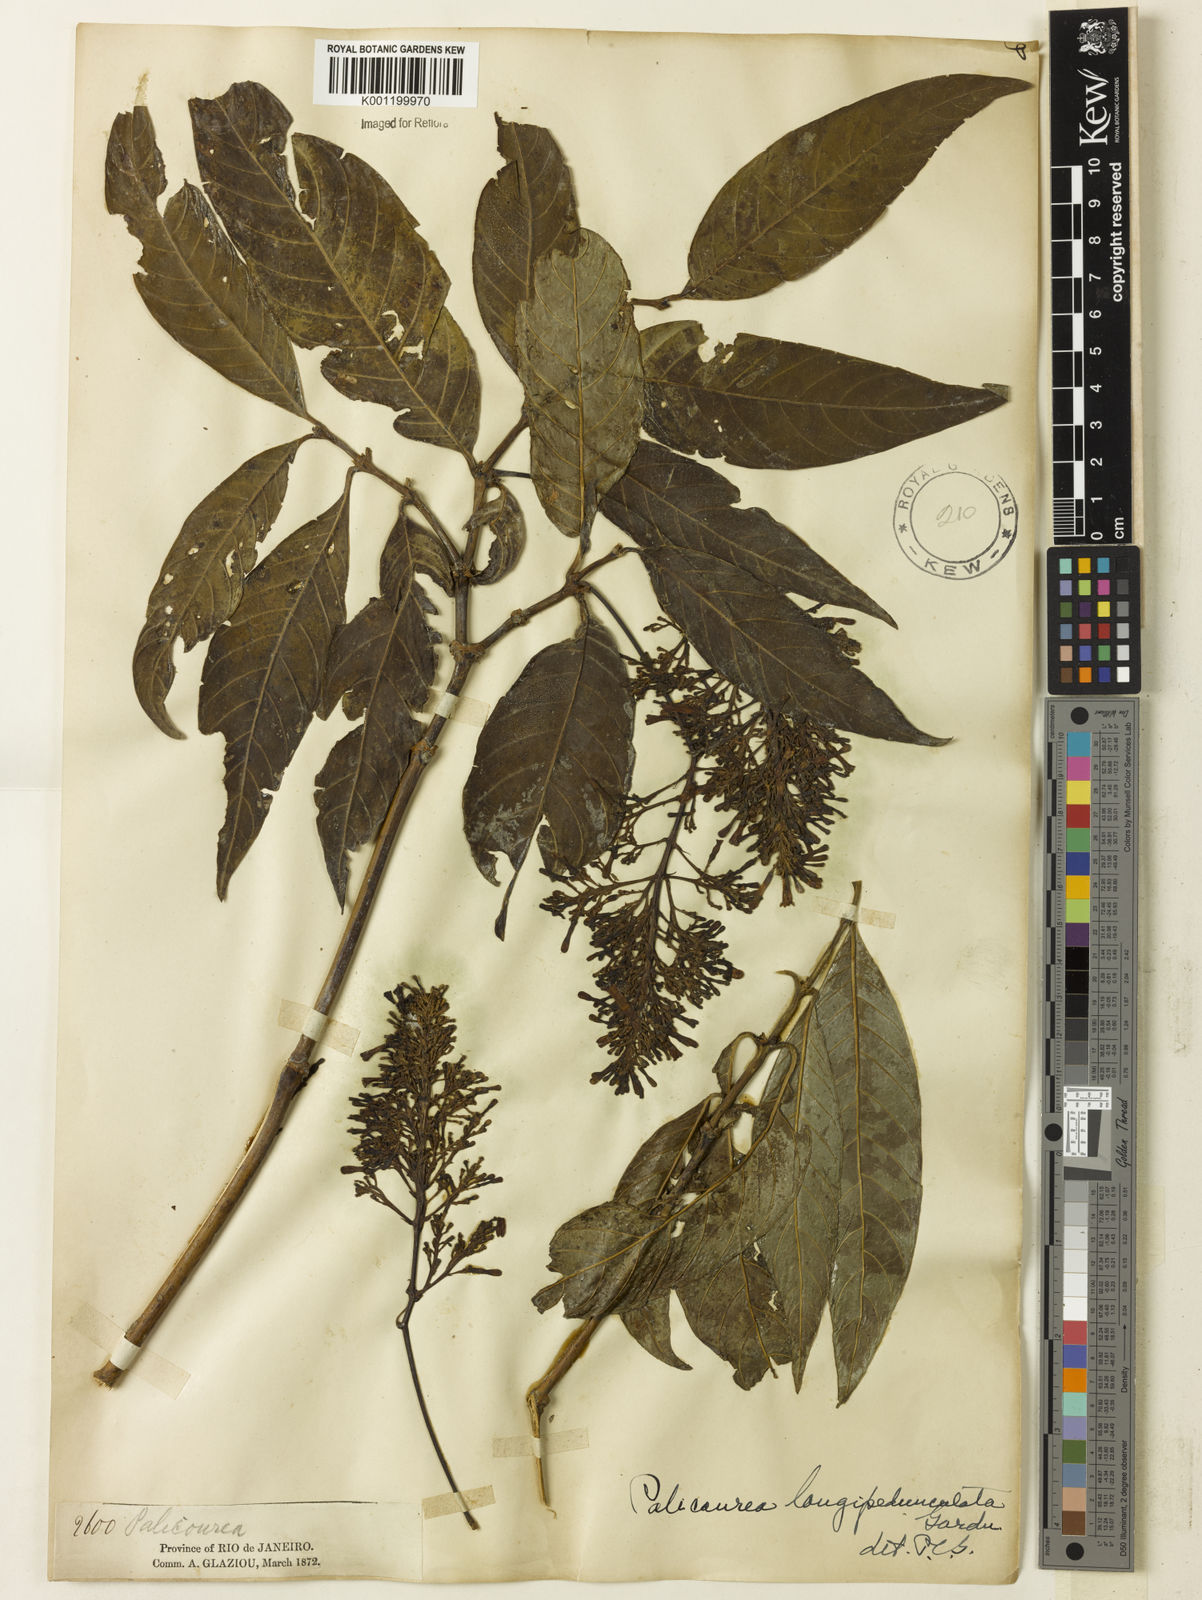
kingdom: Plantae
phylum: Tracheophyta
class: Magnoliopsida
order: Gentianales
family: Rubiaceae
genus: Palicourea
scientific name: Palicourea longipedunculata
